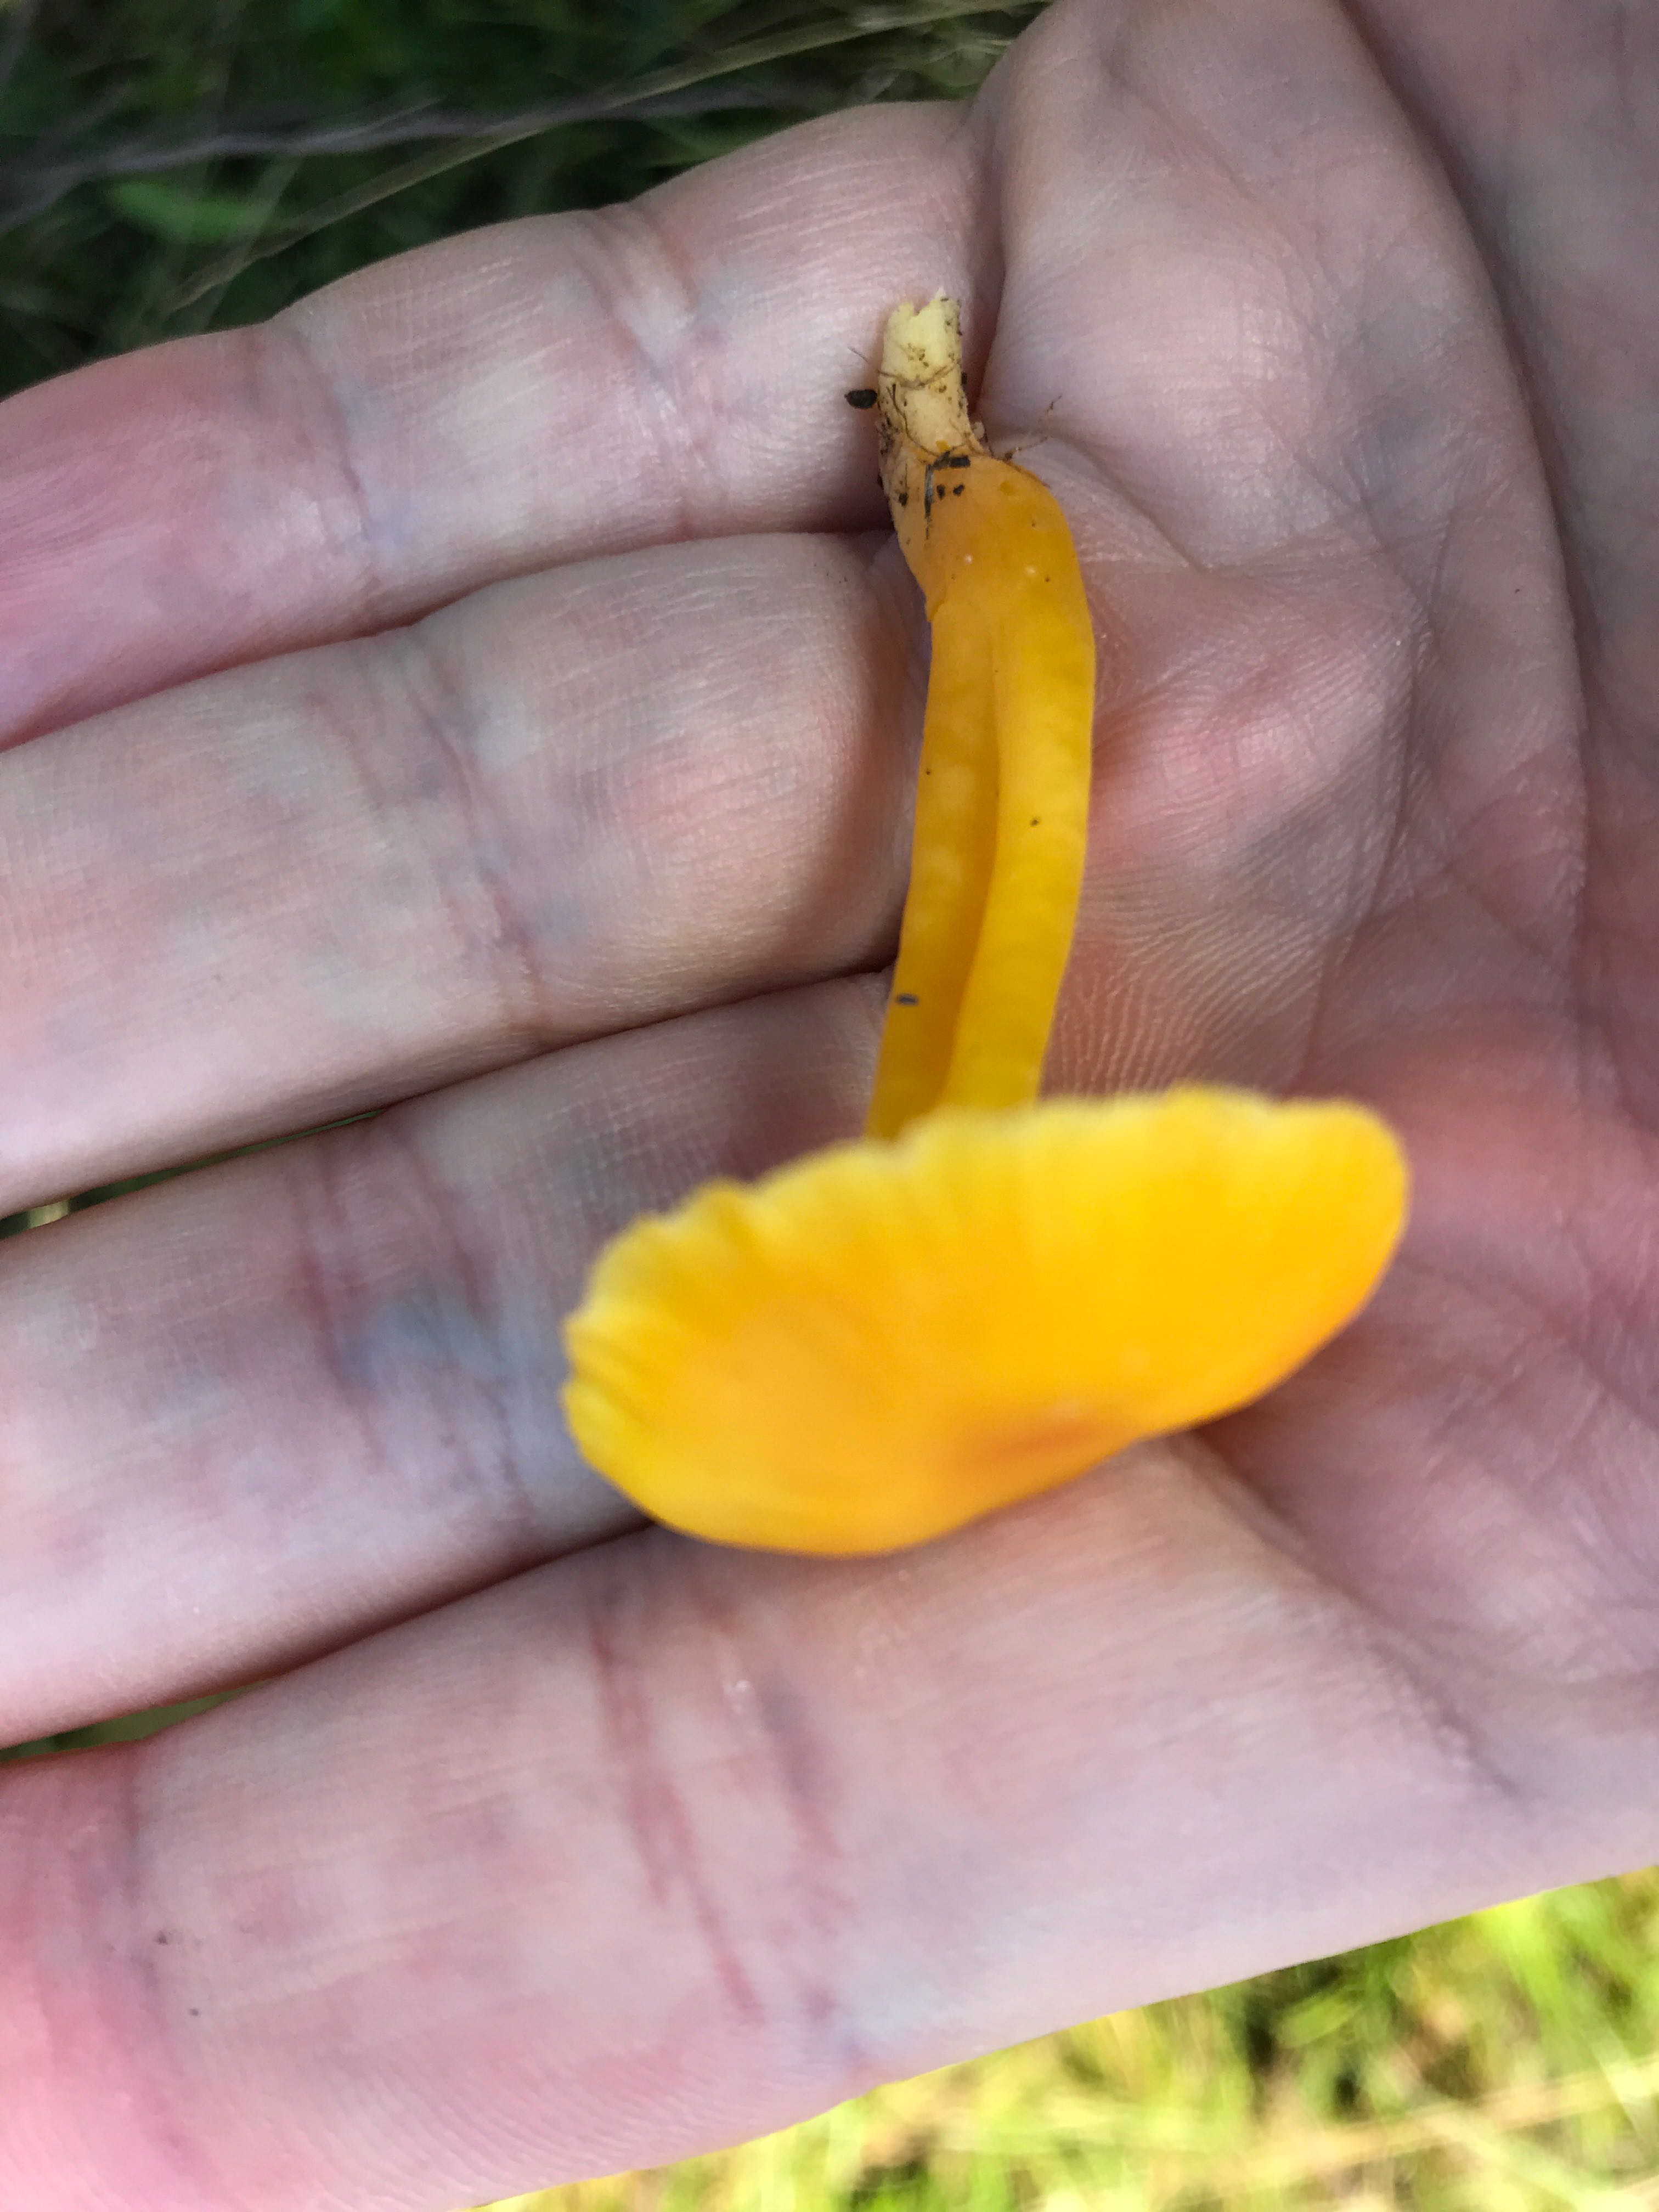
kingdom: Fungi
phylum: Basidiomycota
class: Agaricomycetes
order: Agaricales
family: Hygrophoraceae
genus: Hygrocybe
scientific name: Hygrocybe chlorophana
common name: gul vokshat
